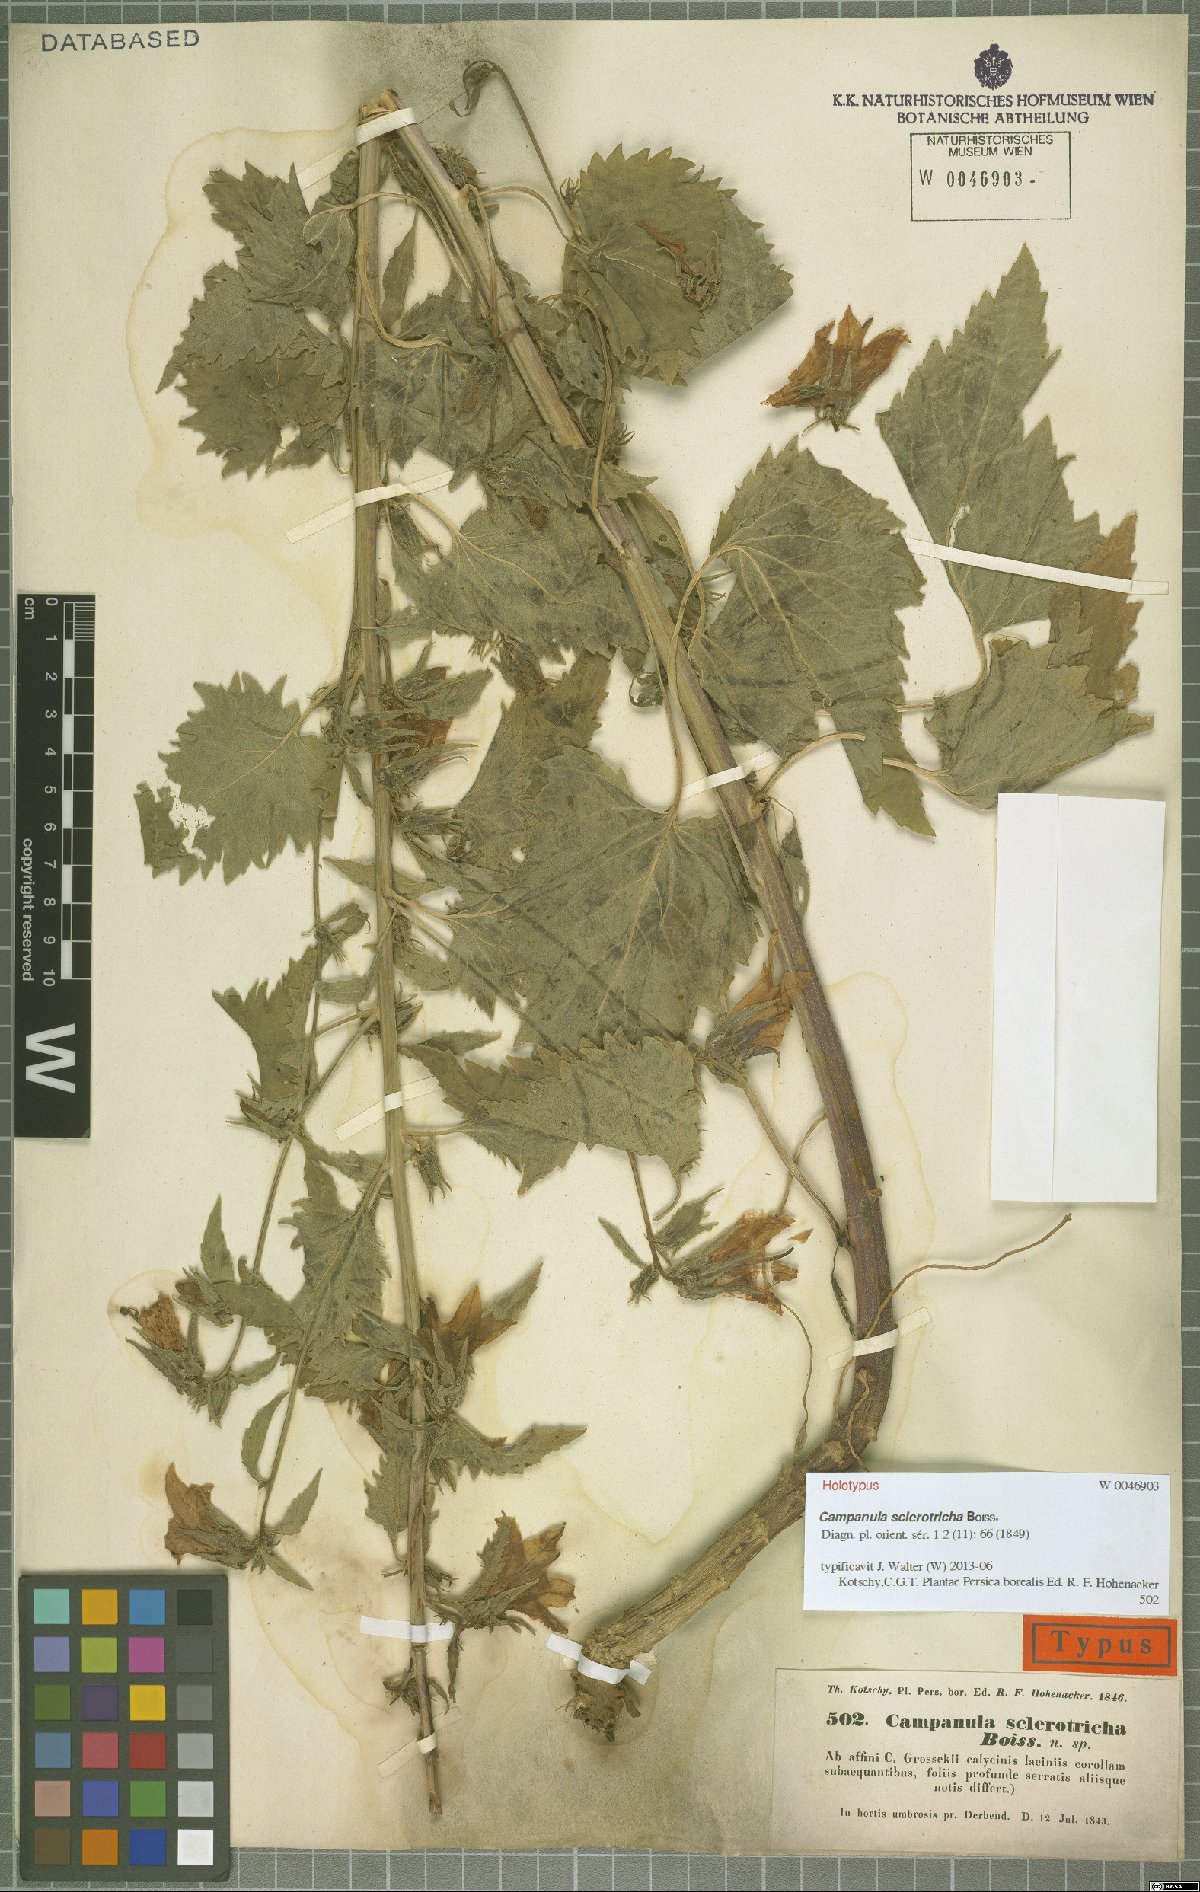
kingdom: Plantae
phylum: Tracheophyta
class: Magnoliopsida
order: Asterales
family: Campanulaceae
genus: Campanula
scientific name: Campanula sclerotricha
